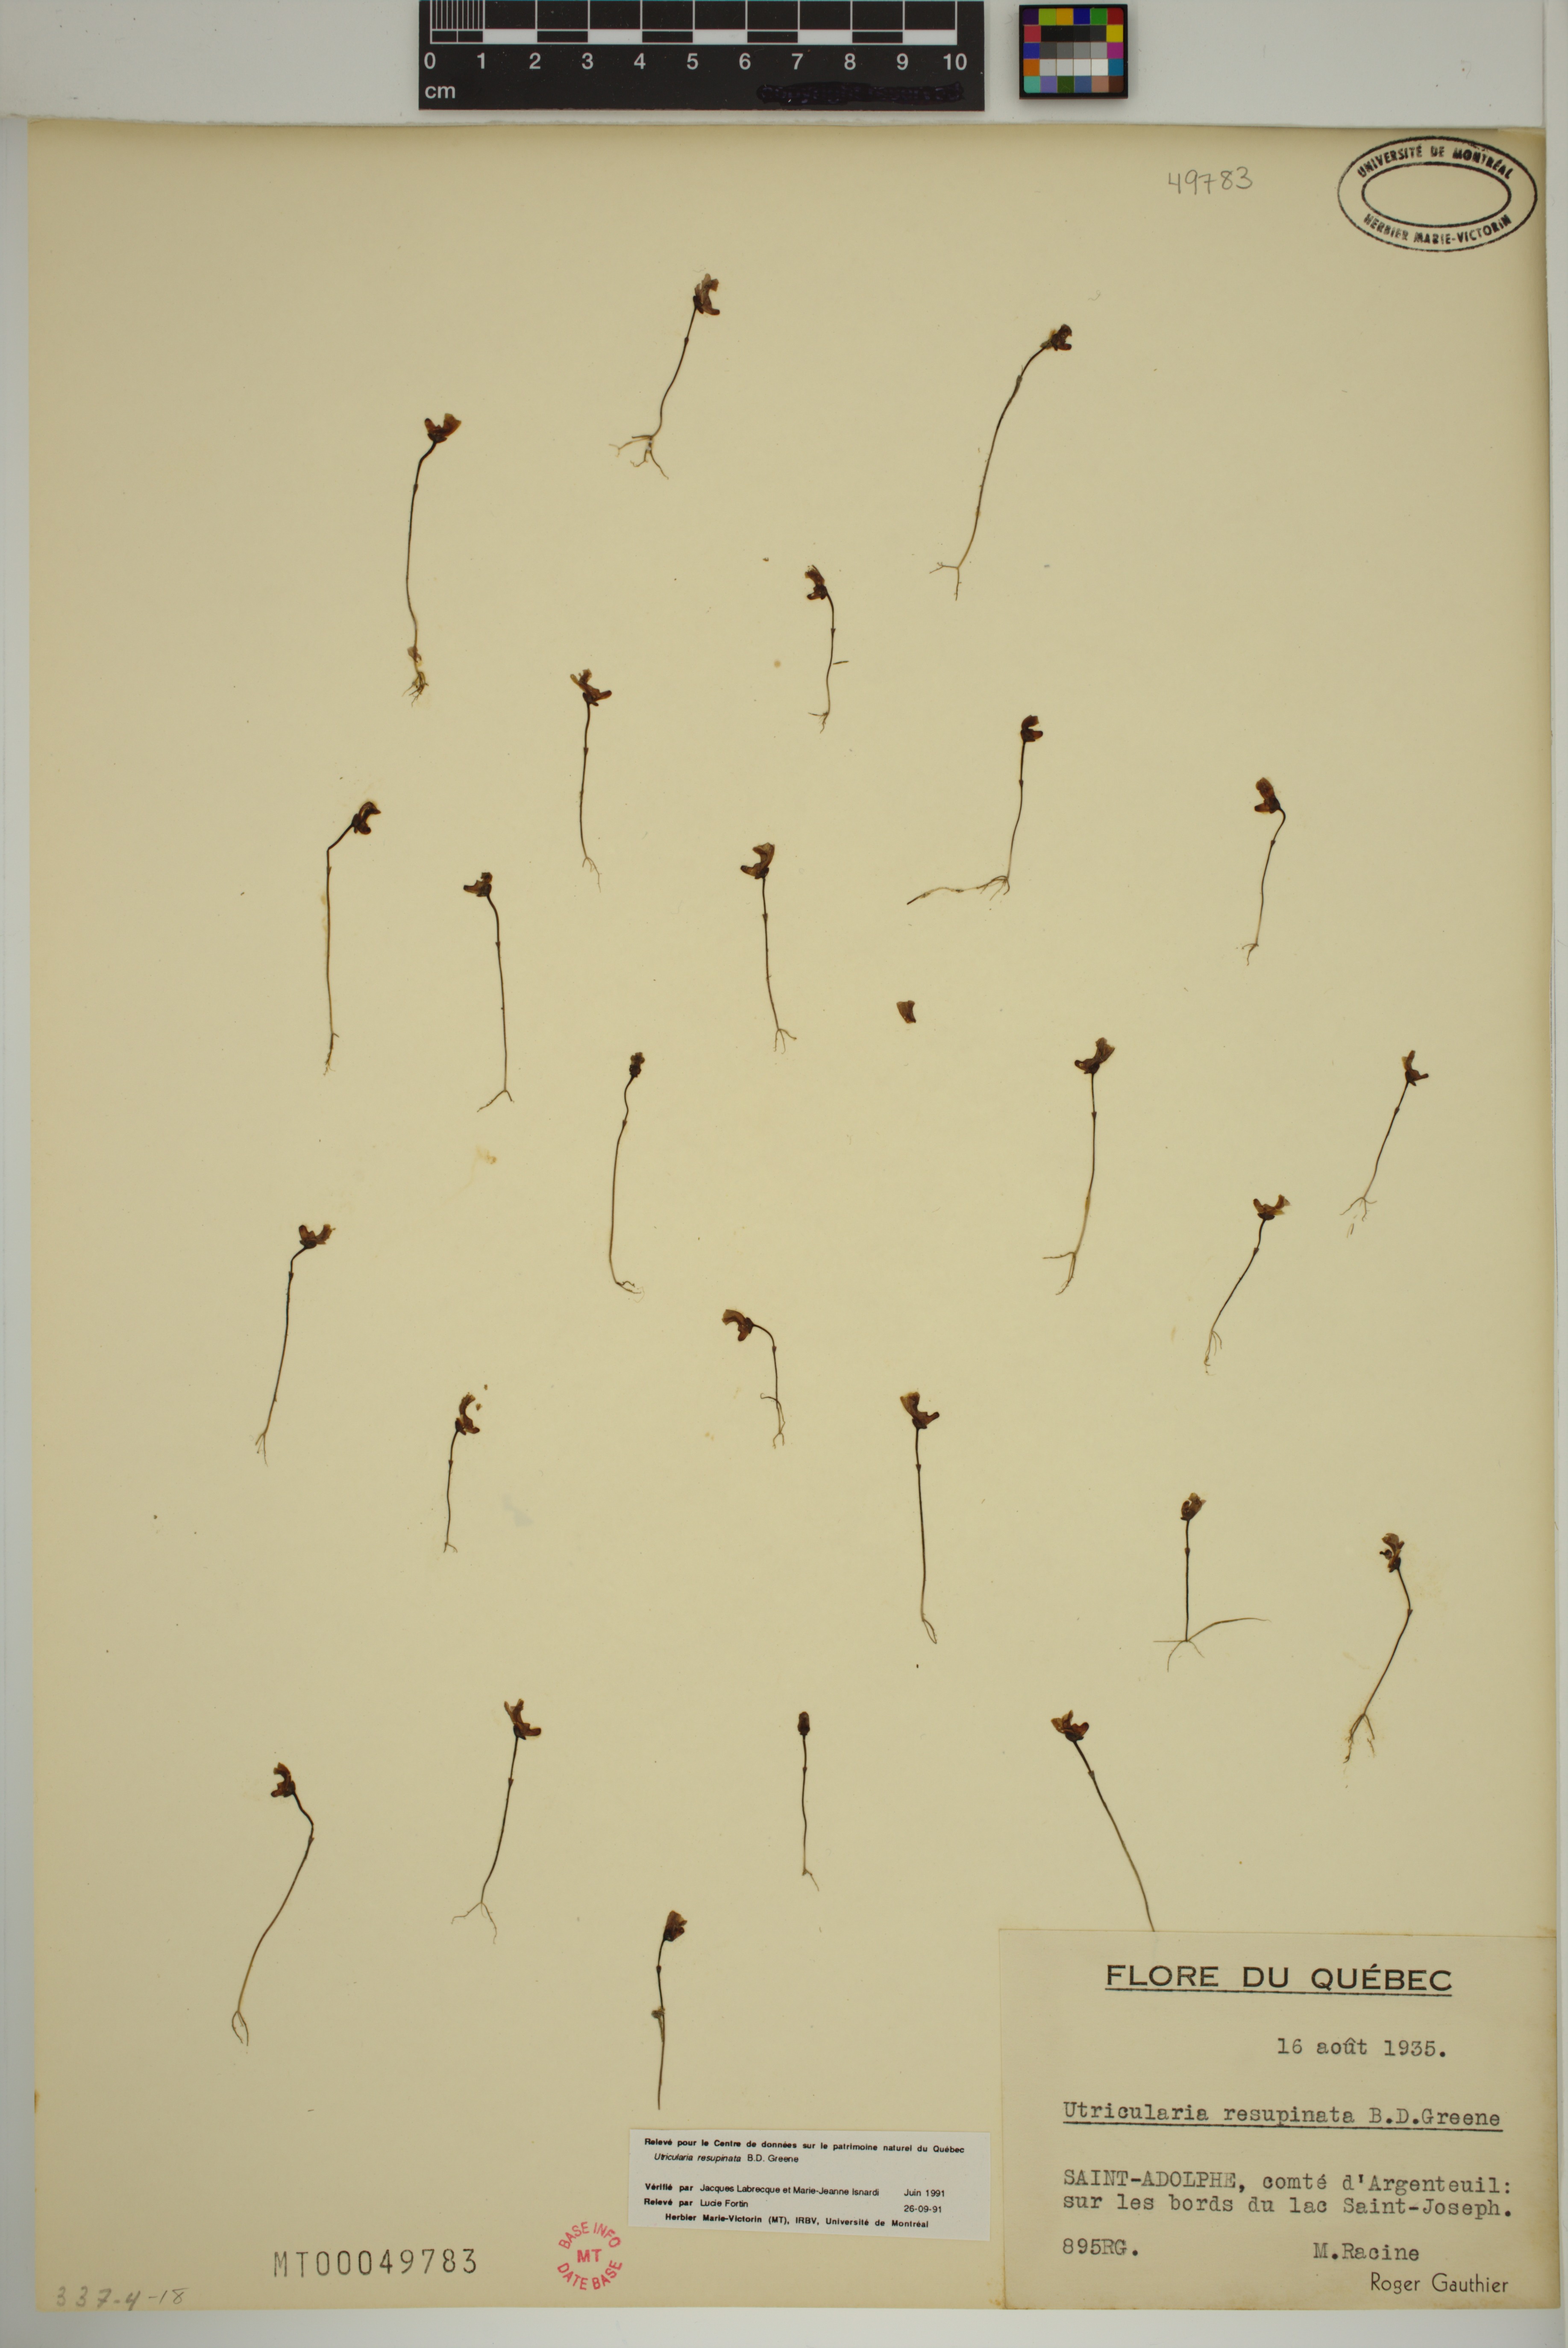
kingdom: Plantae
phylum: Tracheophyta
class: Magnoliopsida
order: Lamiales
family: Lentibulariaceae
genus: Utricularia
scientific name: Utricularia resupinata
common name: Northeastern bladderwort
